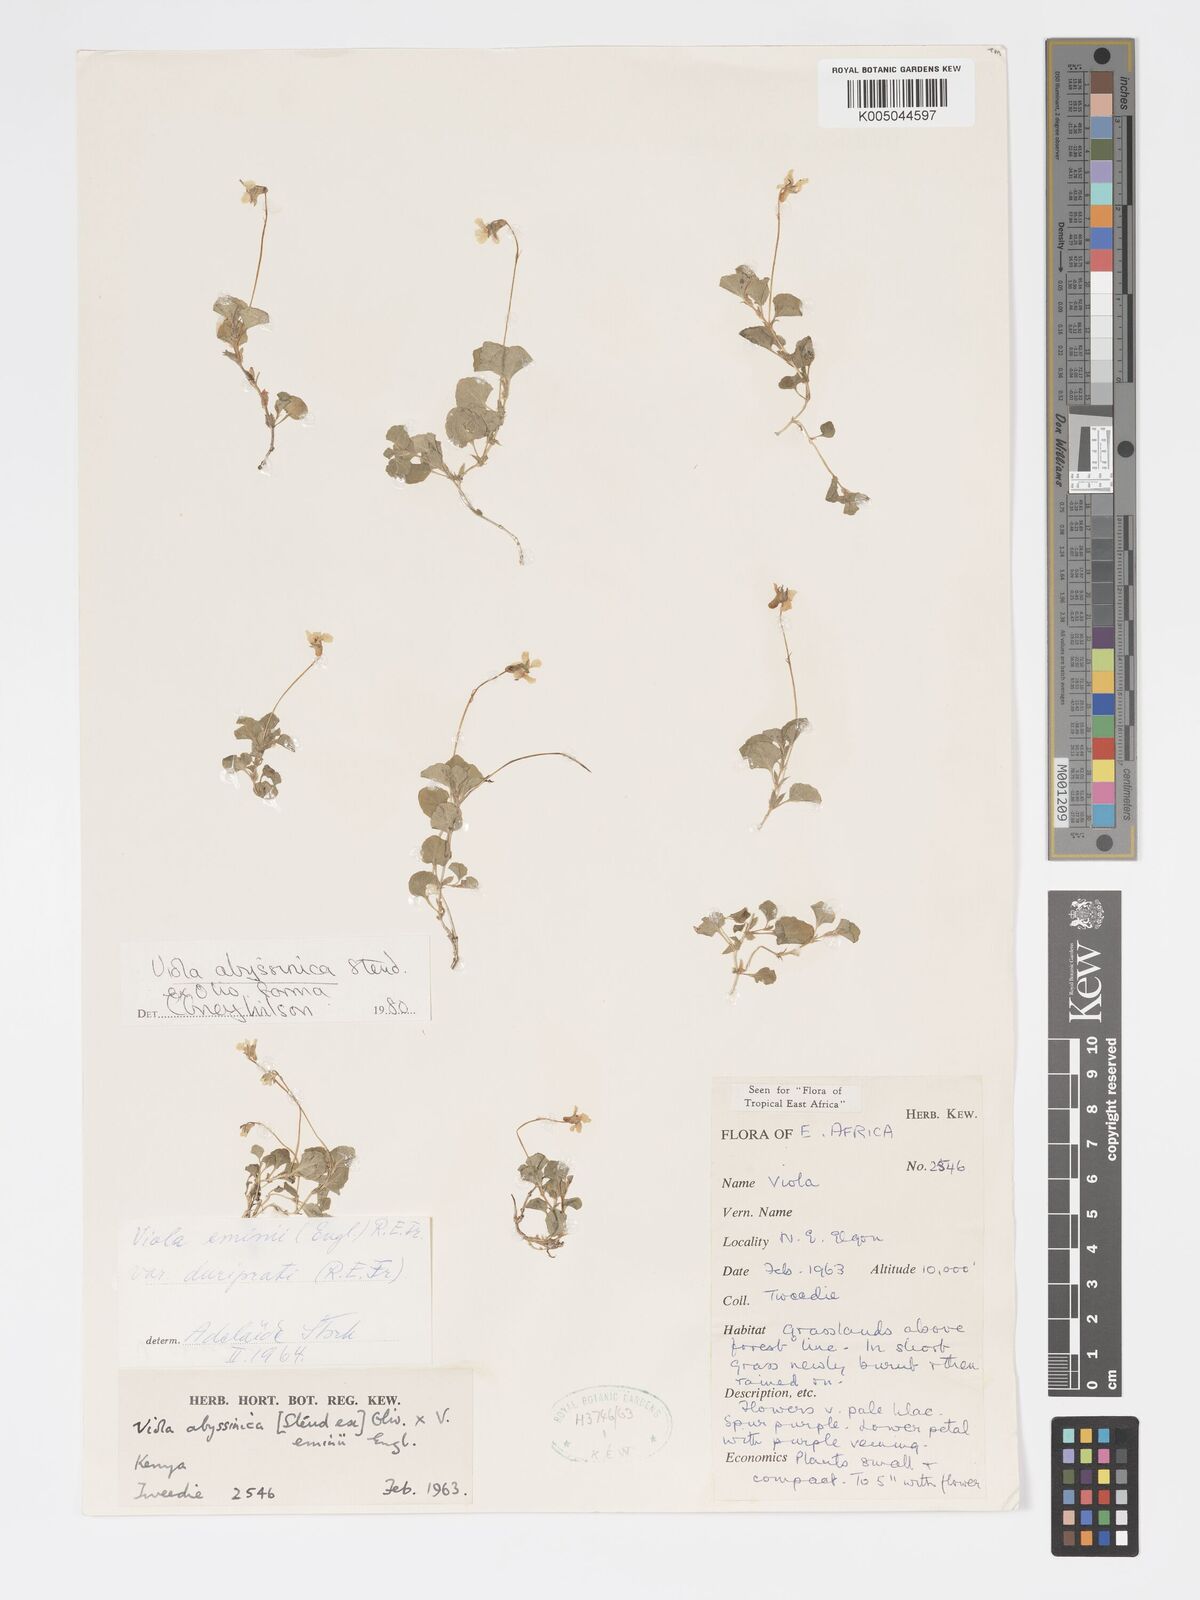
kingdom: Plantae
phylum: Tracheophyta
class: Magnoliopsida
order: Malpighiales
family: Violaceae
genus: Viola
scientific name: Viola abyssinica
